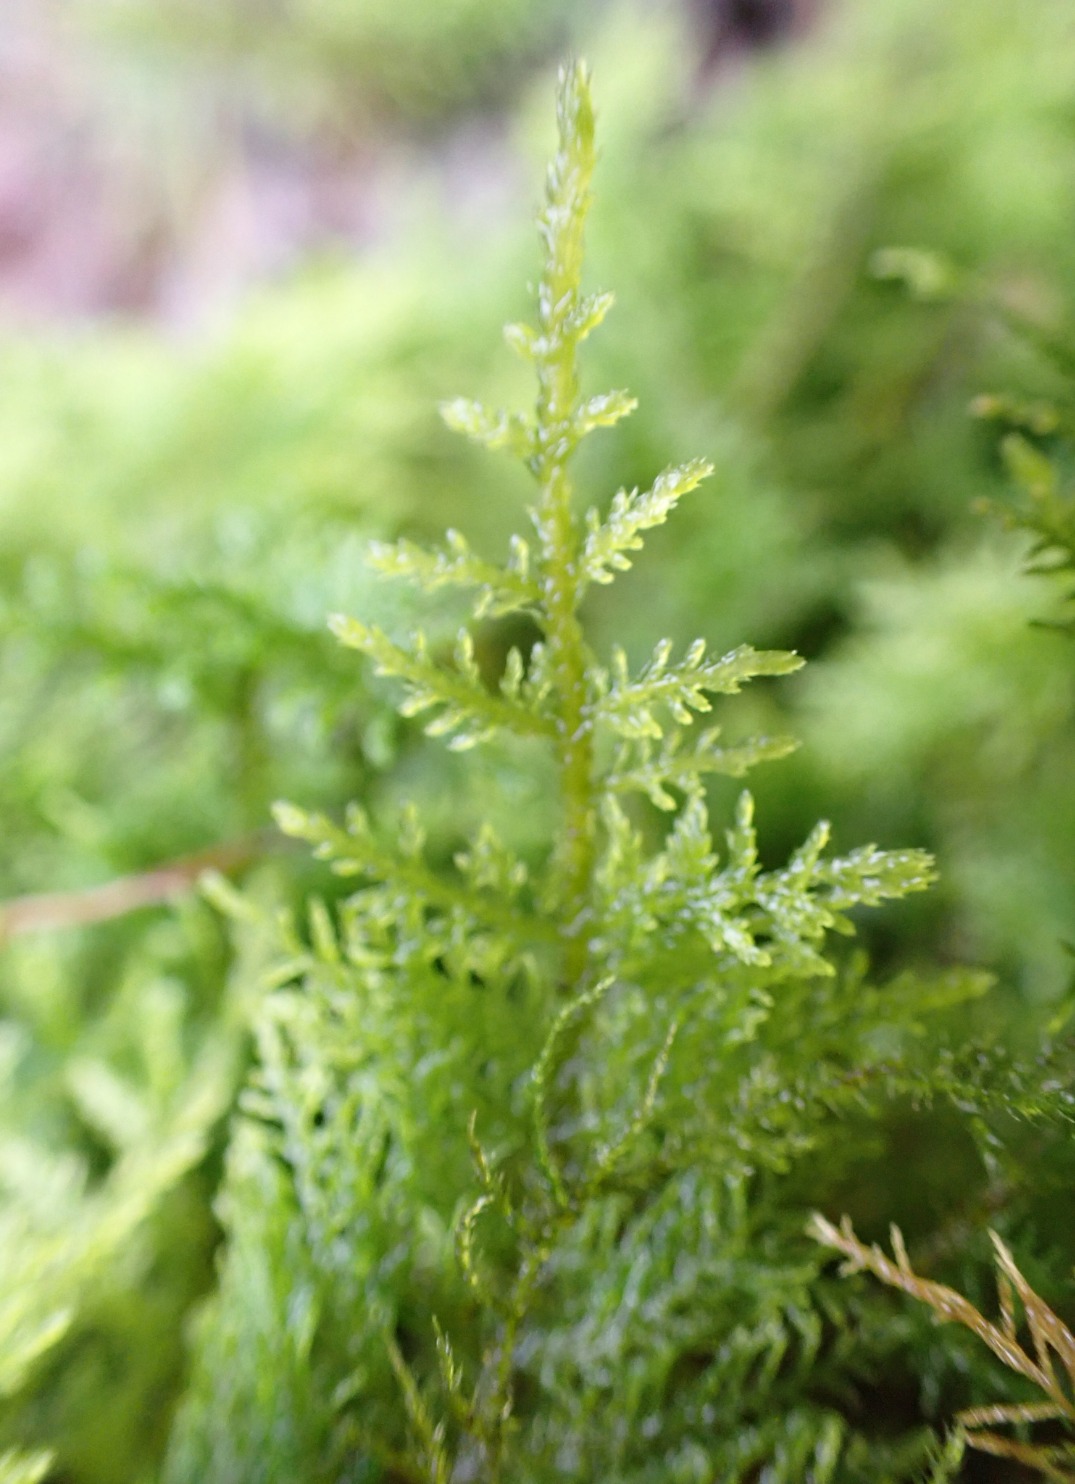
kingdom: Plantae
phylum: Bryophyta
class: Bryopsida
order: Hypnales
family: Thuidiaceae
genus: Thuidium
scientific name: Thuidium tamariscinum
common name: Pryd-bregnemos
